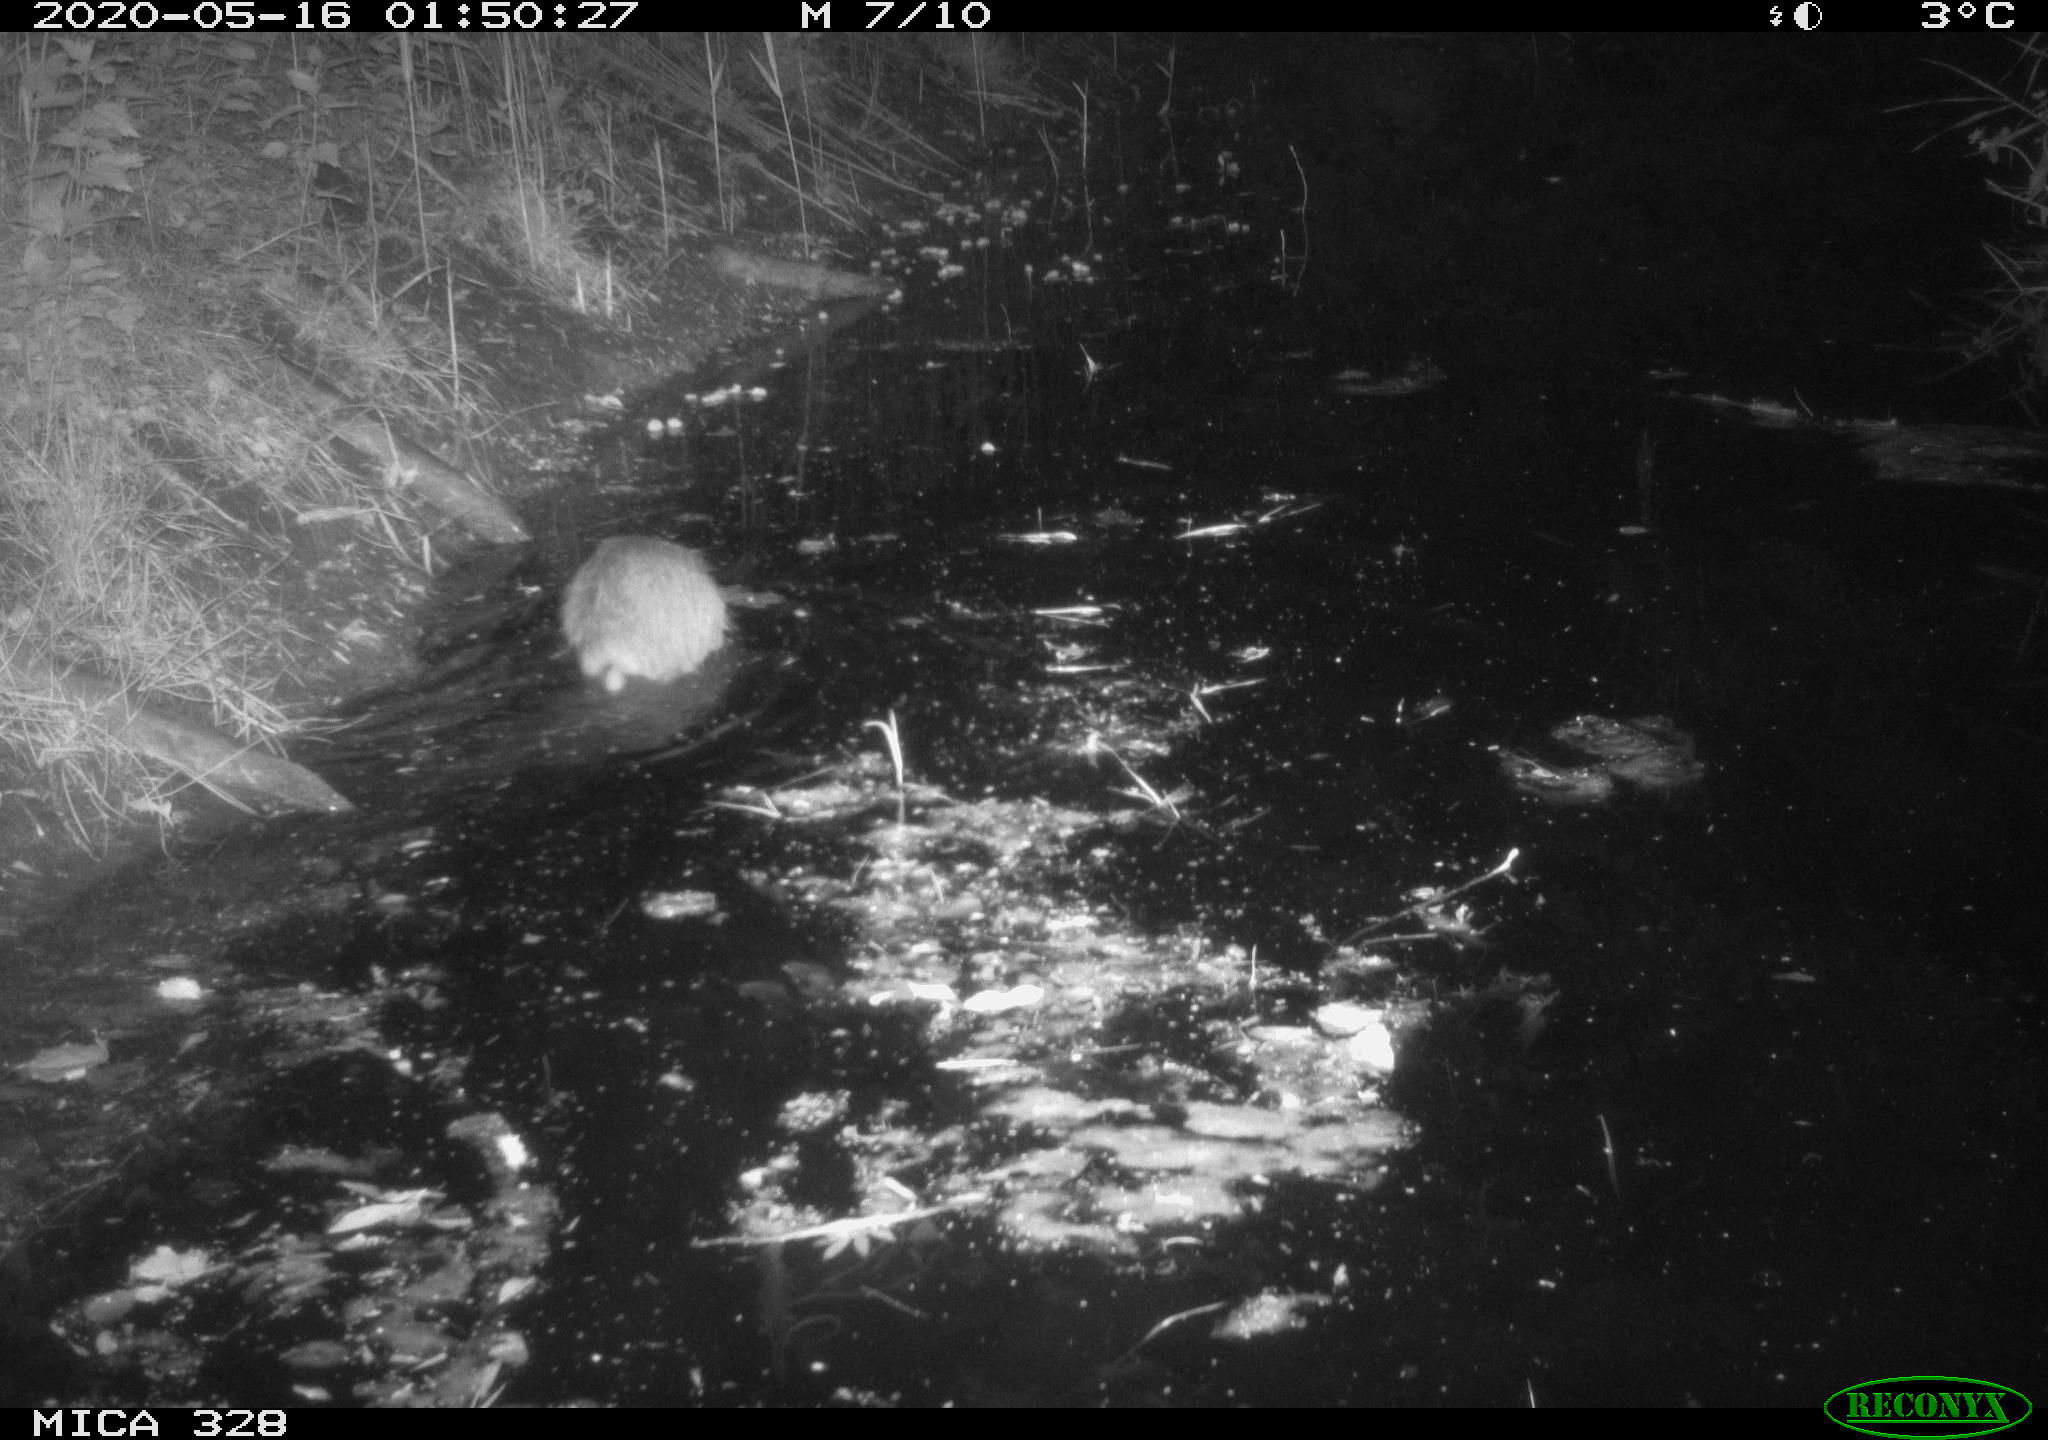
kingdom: Animalia
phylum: Chordata
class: Mammalia
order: Rodentia
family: Myocastoridae
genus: Myocastor
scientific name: Myocastor coypus
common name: Coypu
